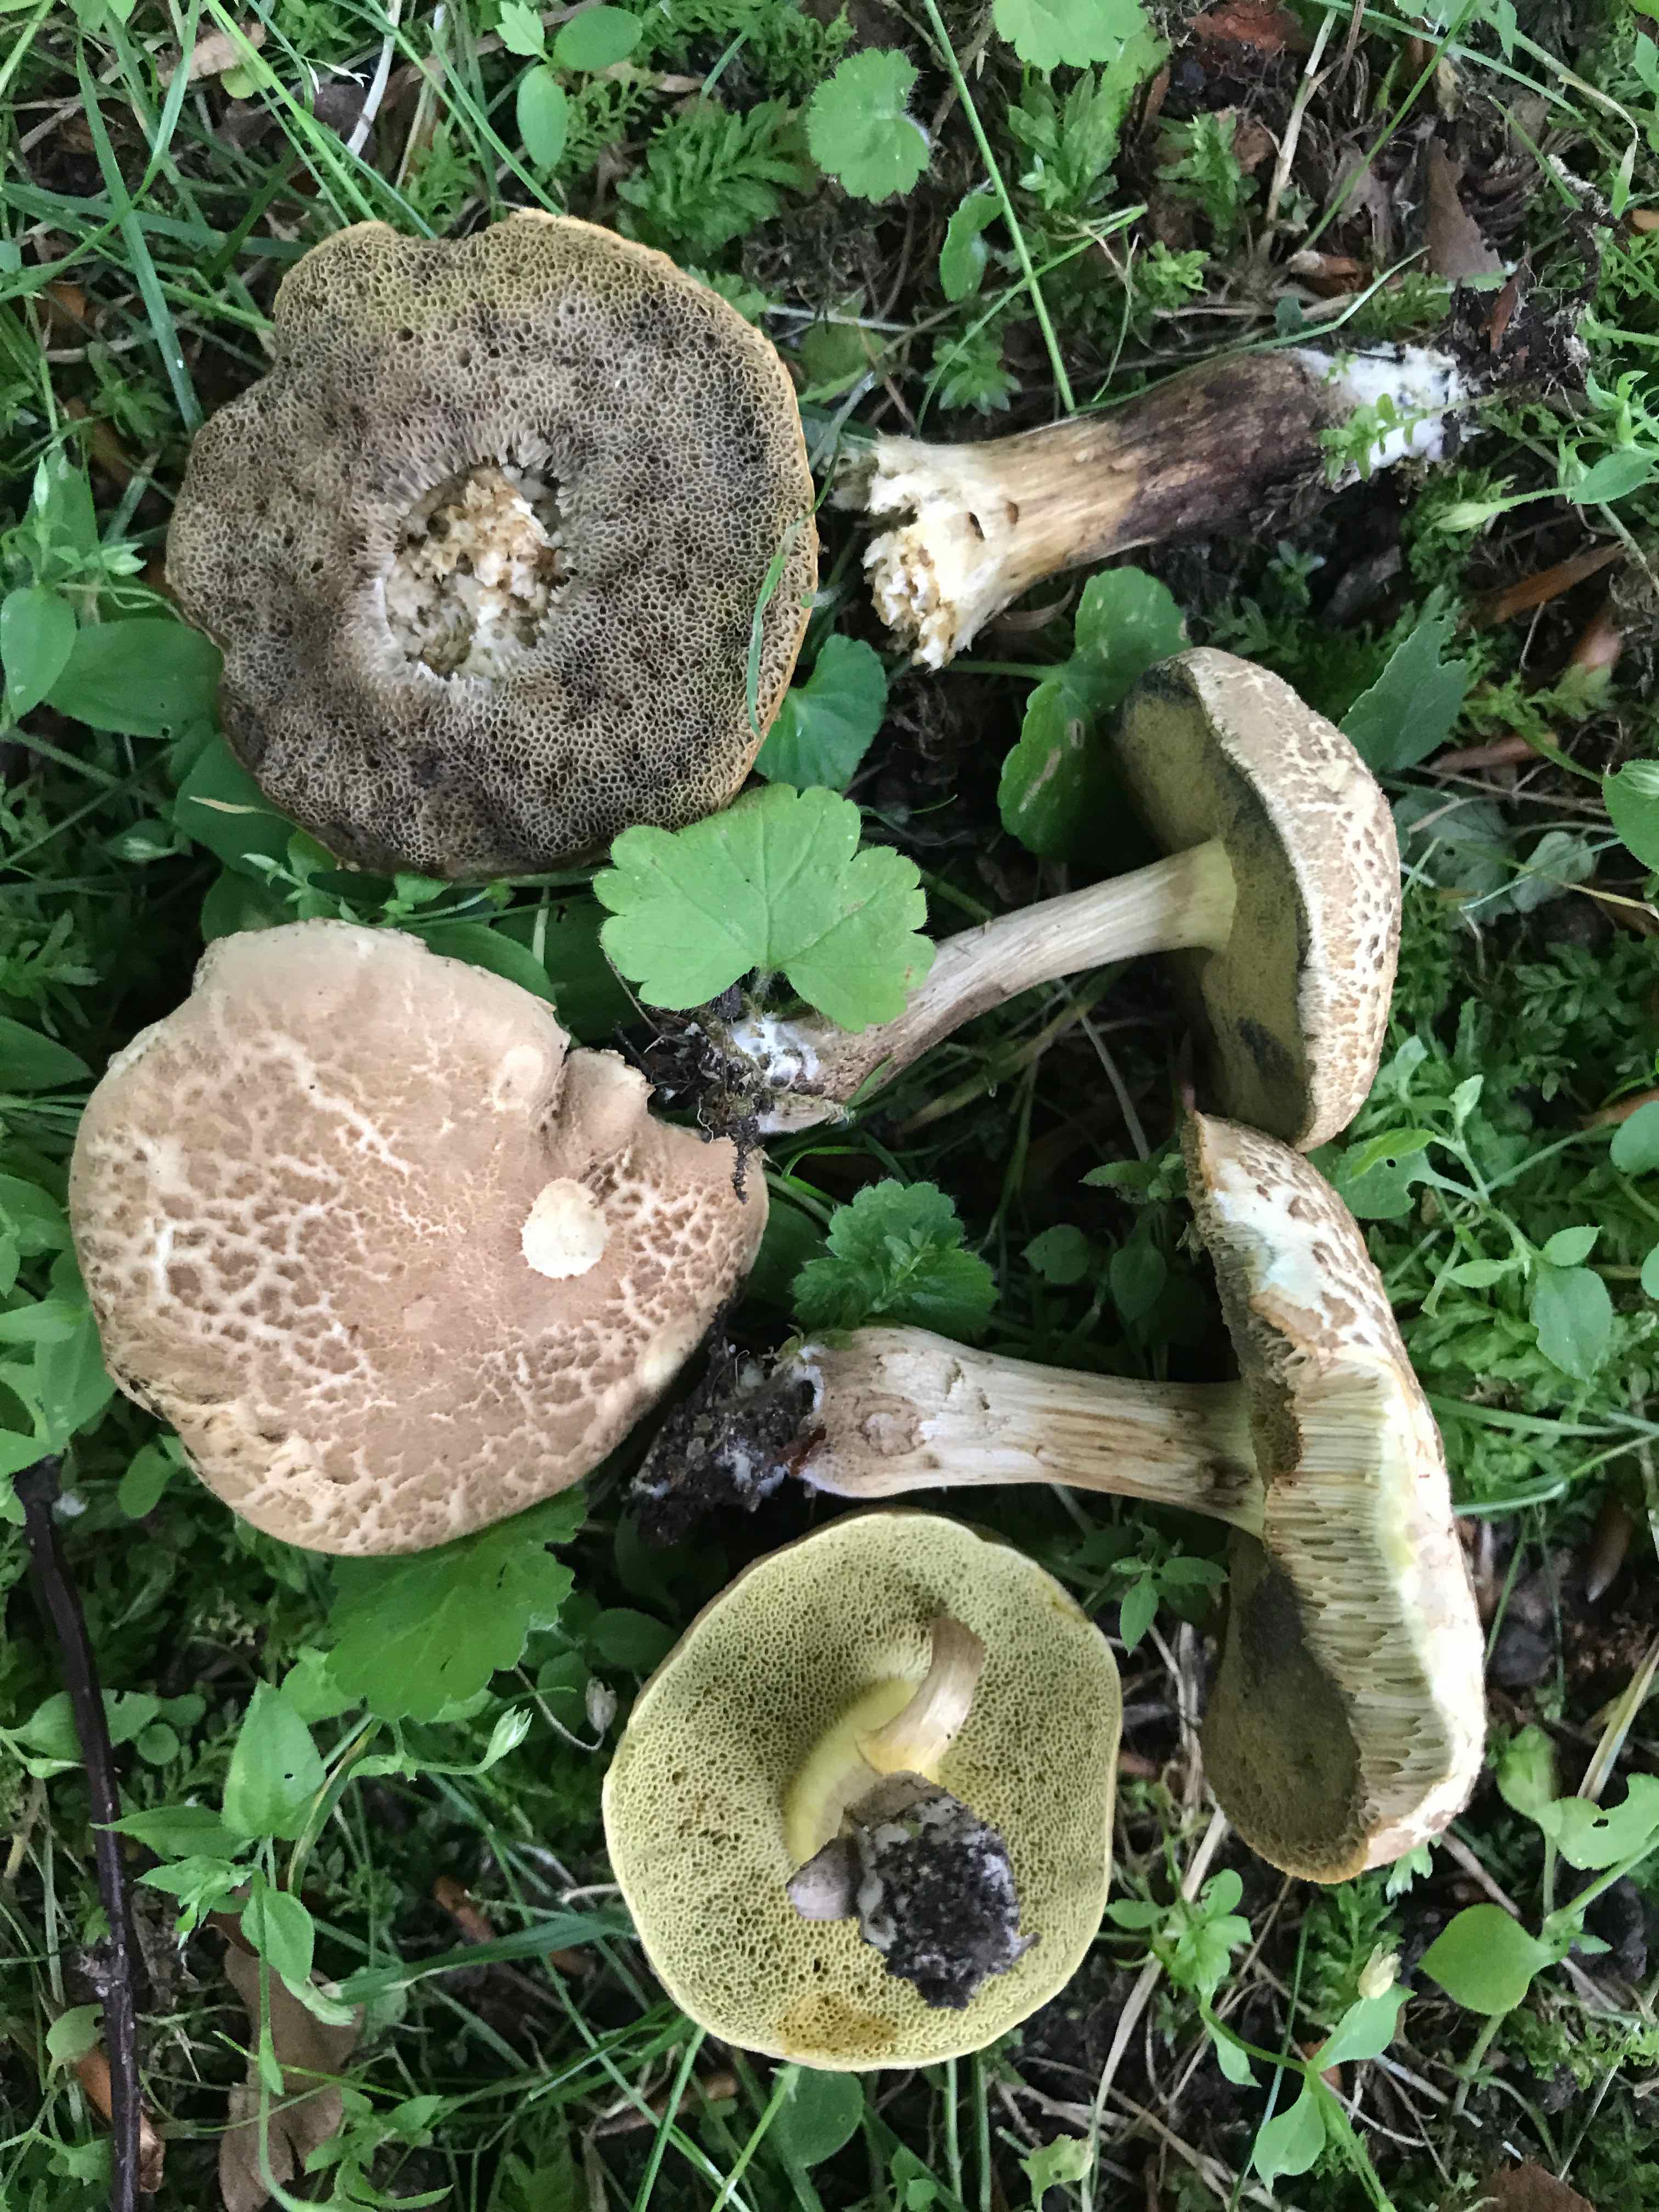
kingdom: Fungi
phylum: Basidiomycota
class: Agaricomycetes
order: Boletales
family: Boletaceae
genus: Xerocomellus
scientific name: Xerocomellus porosporus
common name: hvidsprukken rørhat
